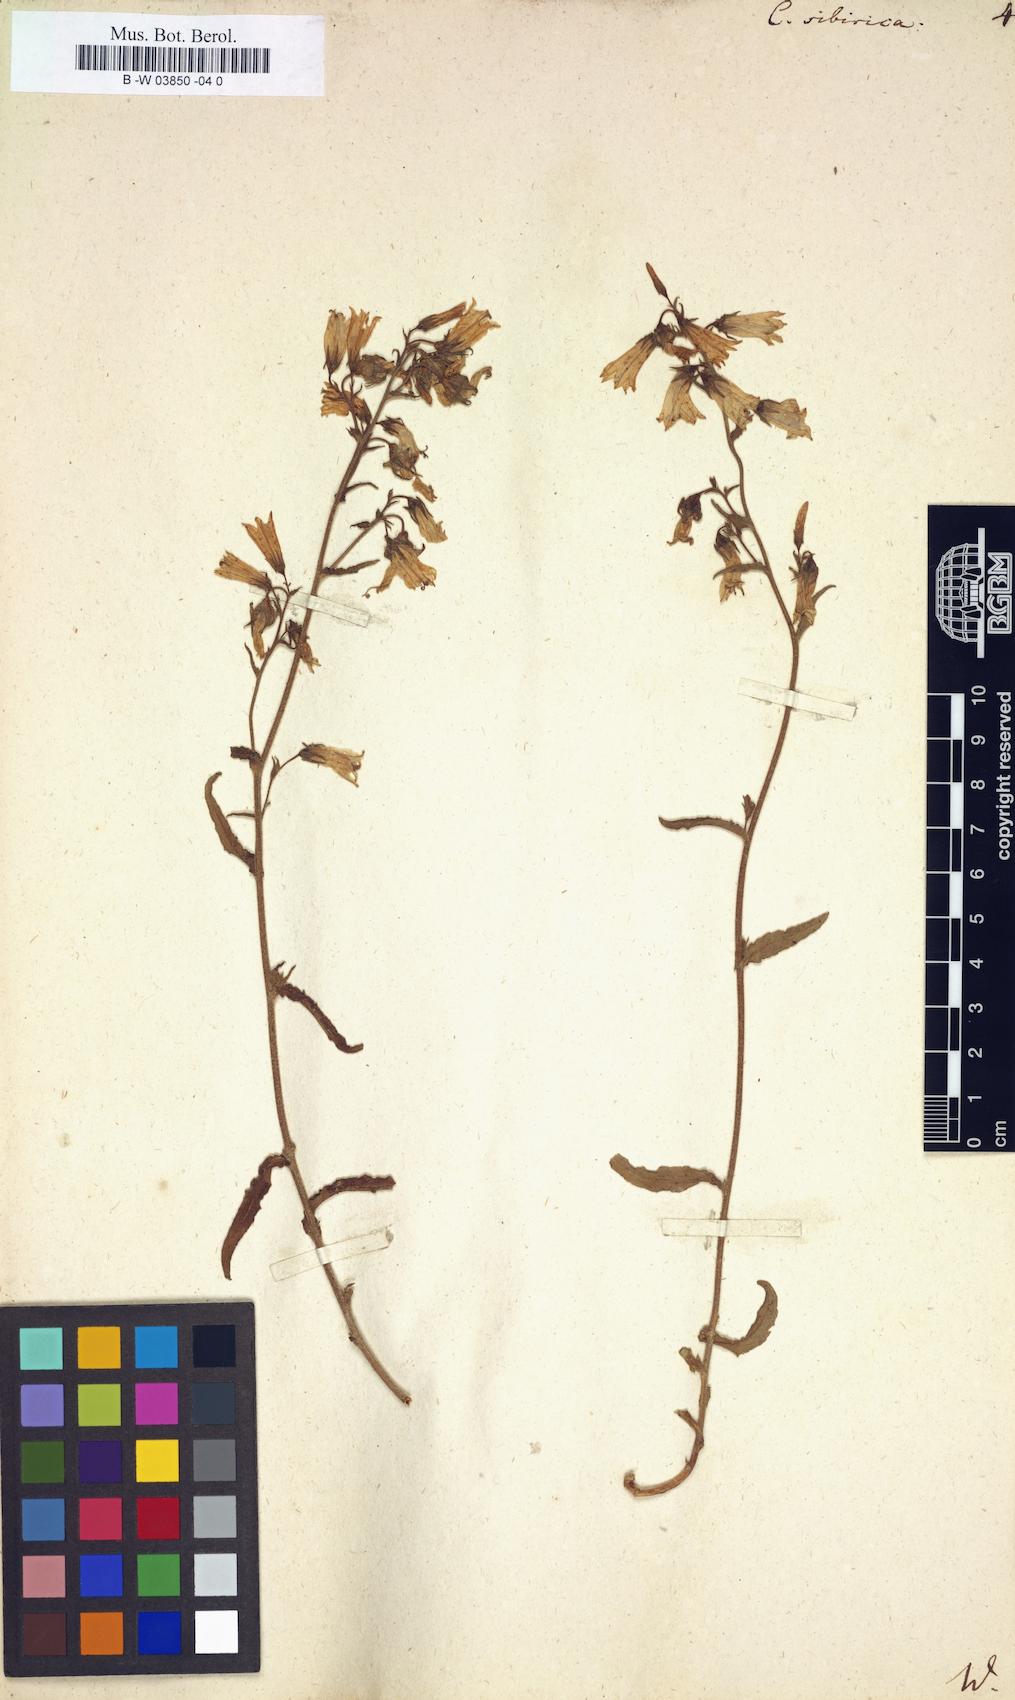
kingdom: Plantae
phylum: Tracheophyta
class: Magnoliopsida
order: Asterales
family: Campanulaceae
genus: Campanula
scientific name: Campanula sibirica
